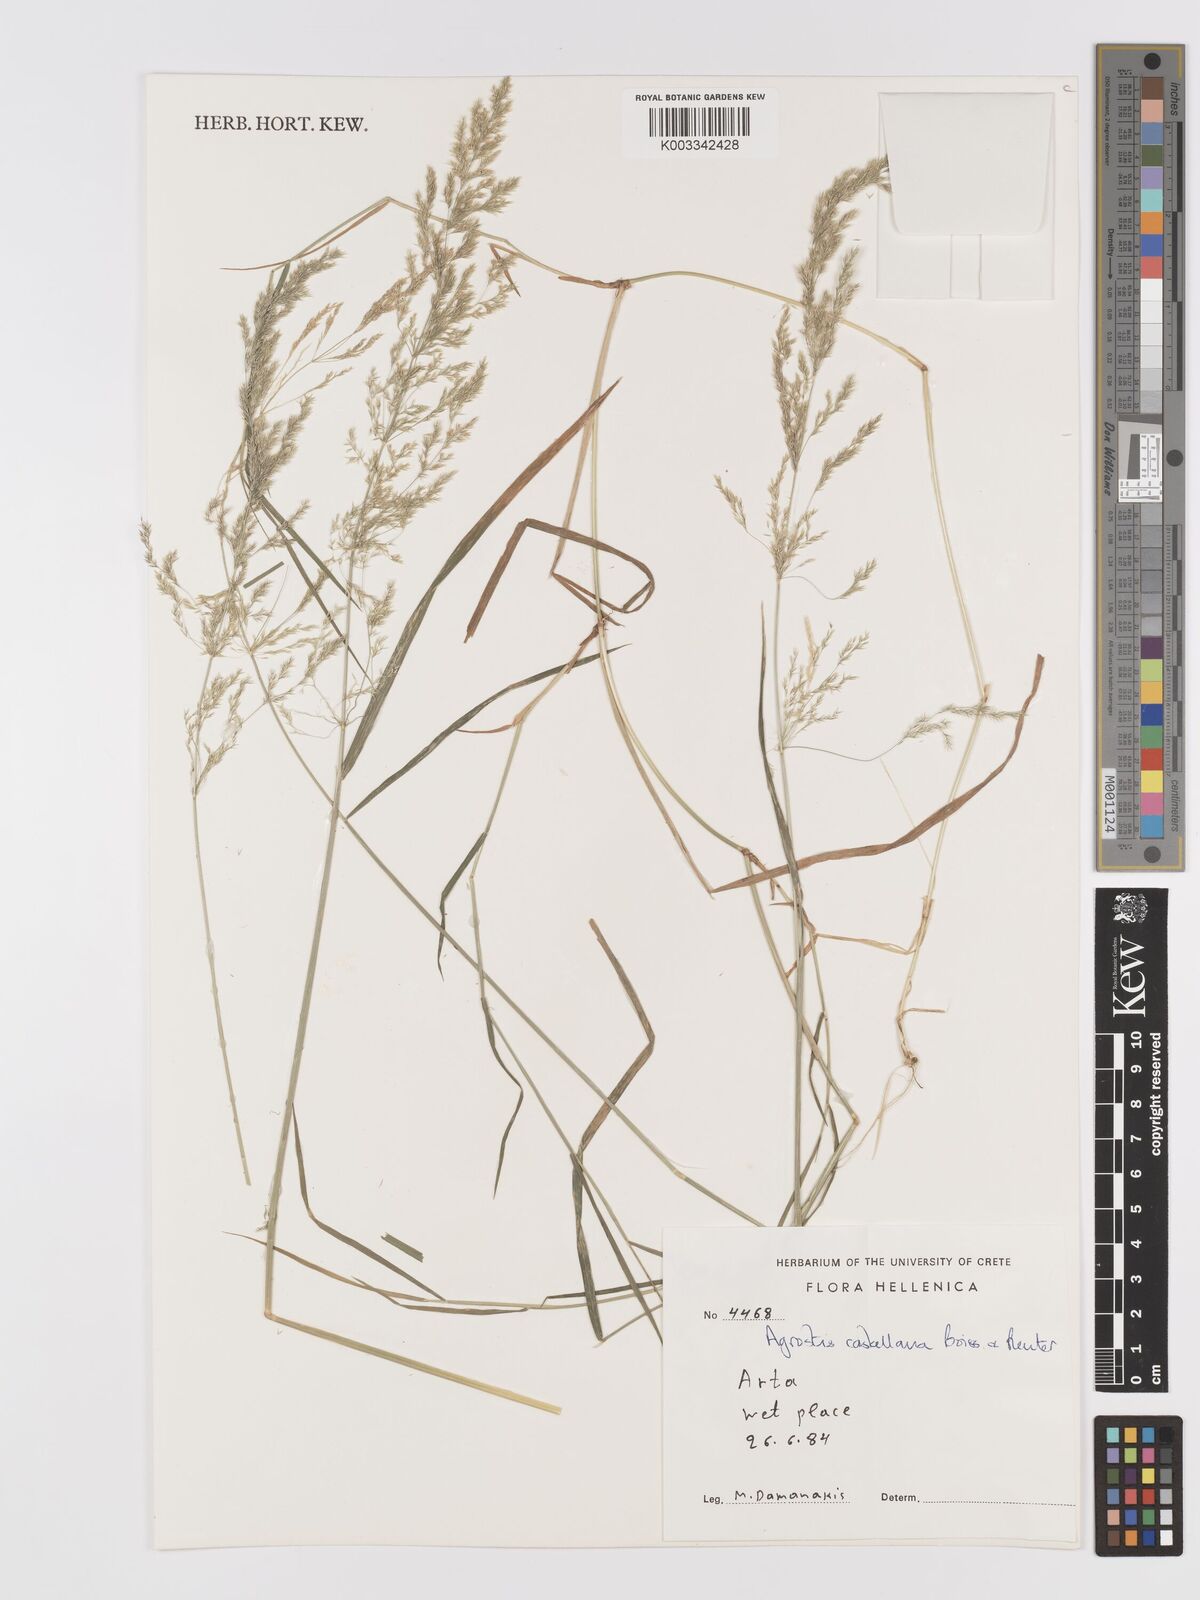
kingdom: Plantae
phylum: Tracheophyta
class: Liliopsida
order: Poales
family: Poaceae
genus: Agrostis
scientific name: Agrostis castellana
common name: Highland bent
